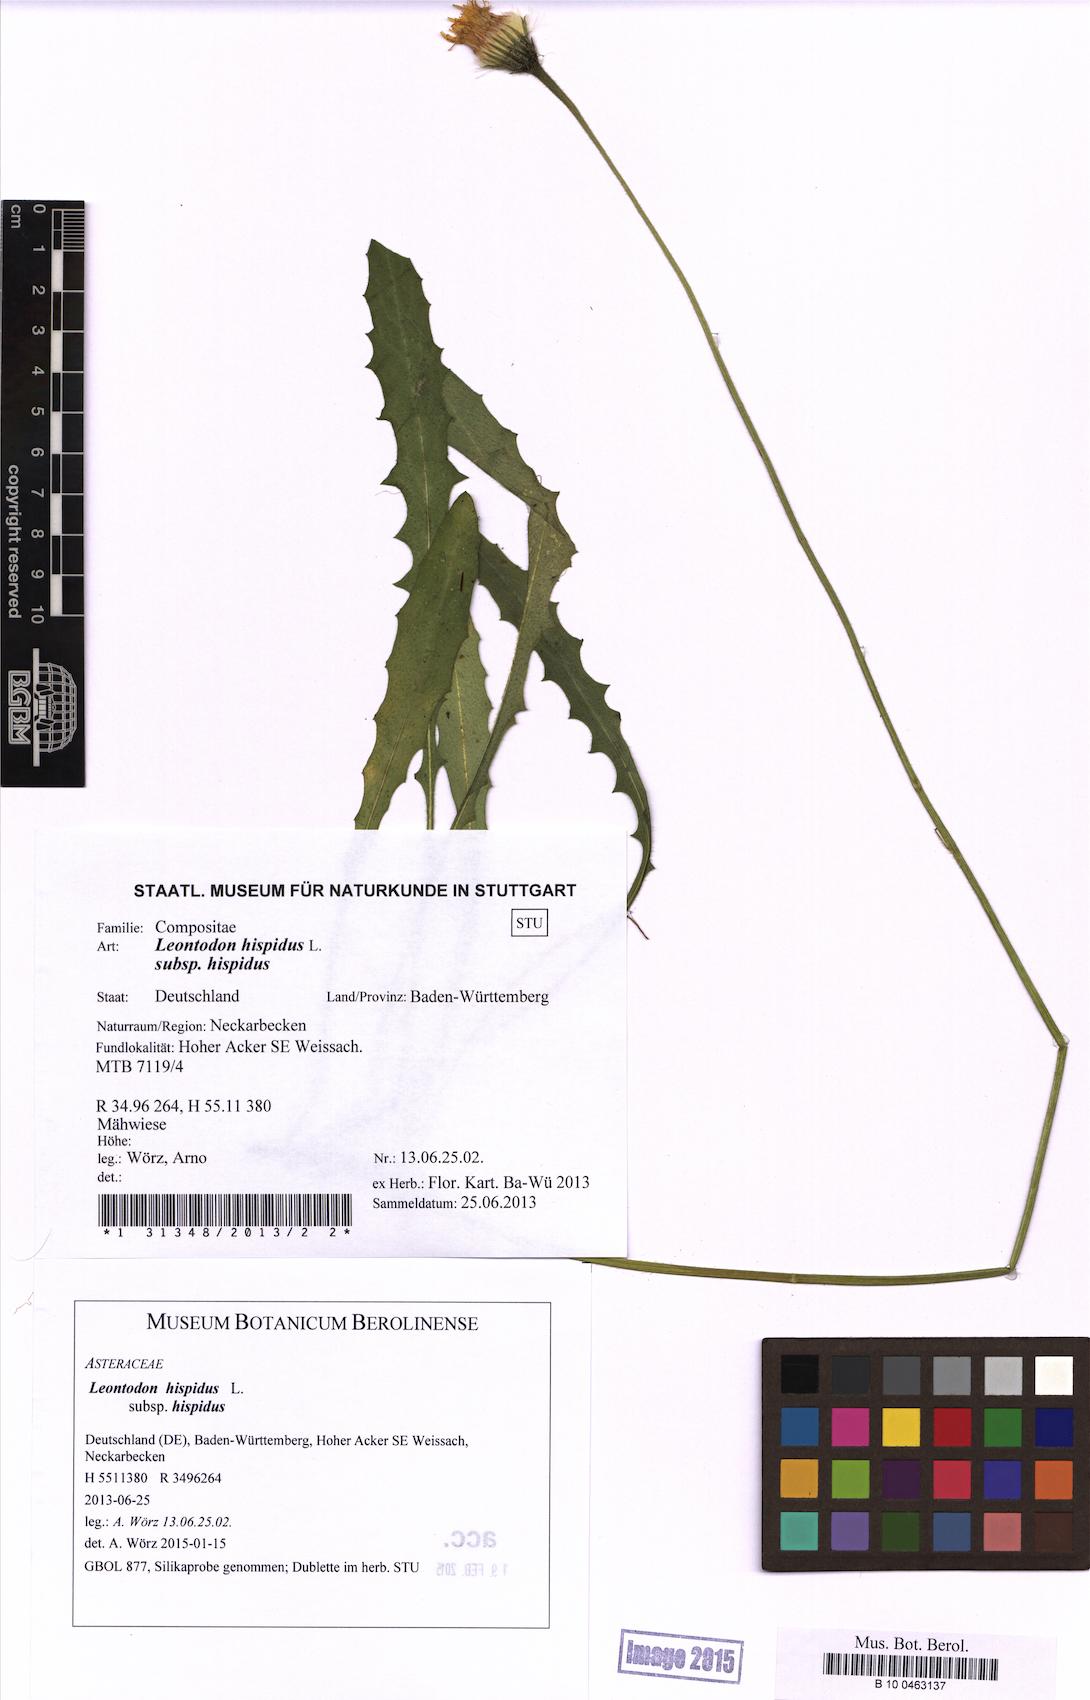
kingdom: Plantae
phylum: Tracheophyta
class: Magnoliopsida
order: Asterales
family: Asteraceae
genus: Leontodon
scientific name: Leontodon hispidus
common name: Rough hawkbit
